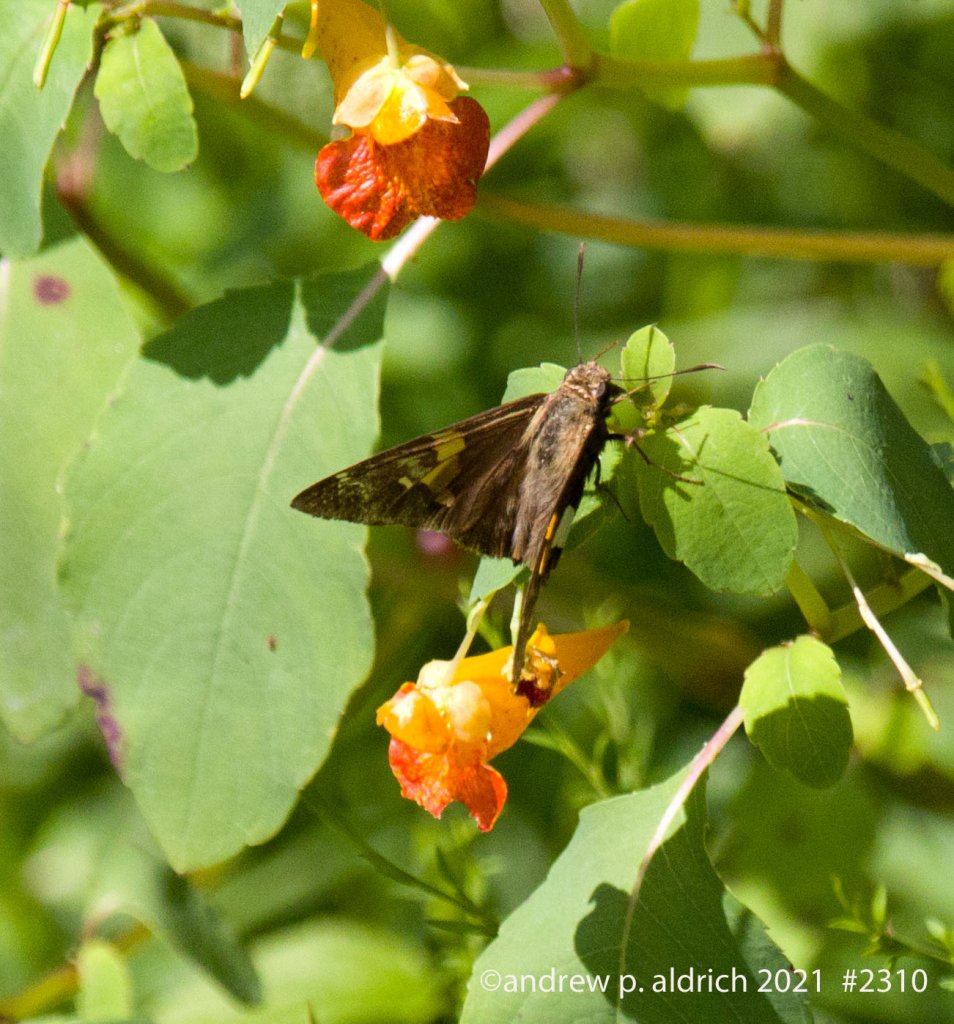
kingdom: Animalia
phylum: Arthropoda
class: Insecta
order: Lepidoptera
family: Hesperiidae
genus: Epargyreus
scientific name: Epargyreus clarus
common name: Silver-spotted Skipper
